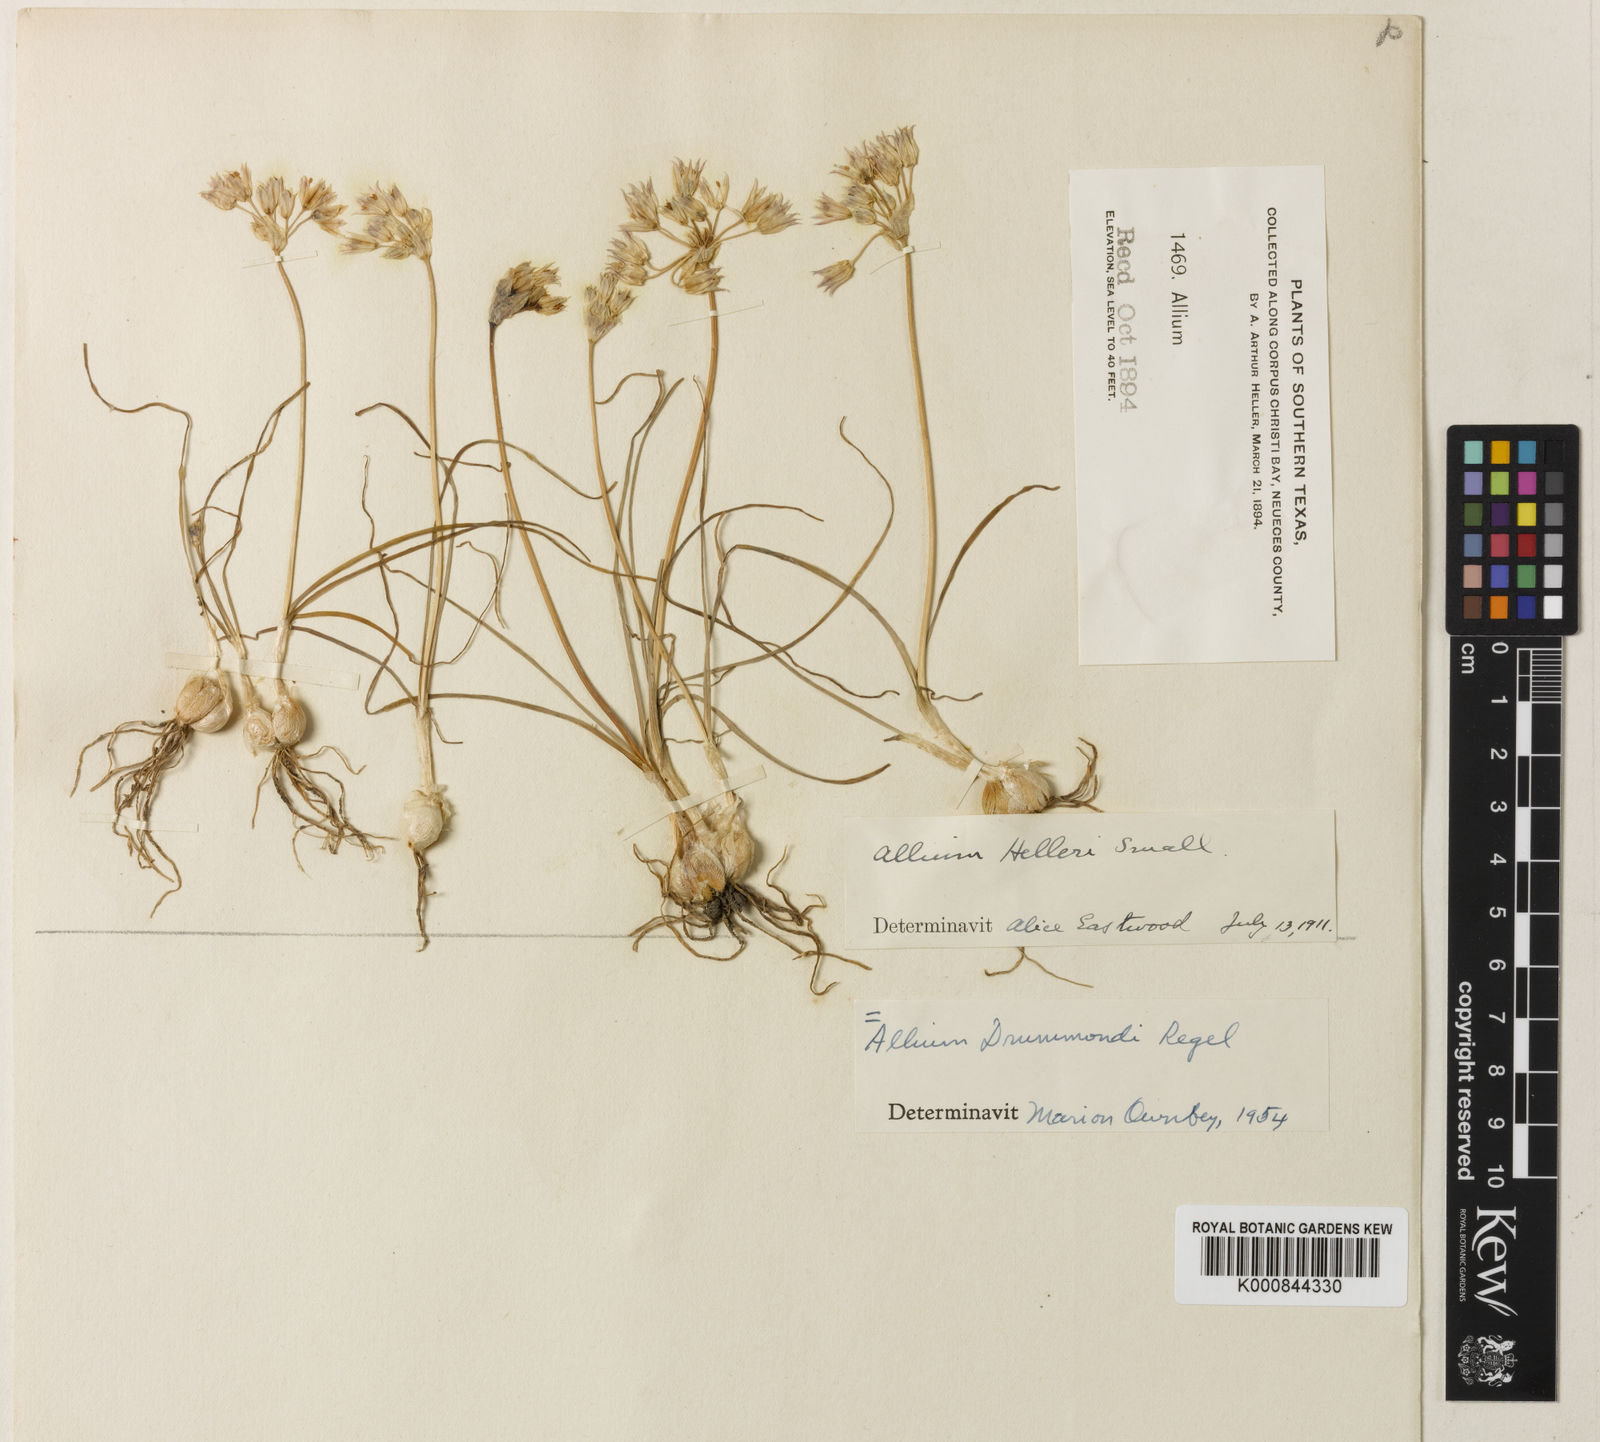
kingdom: Plantae
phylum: Tracheophyta
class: Liliopsida
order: Asparagales
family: Amaryllidaceae
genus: Allium
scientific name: Allium drummondii
